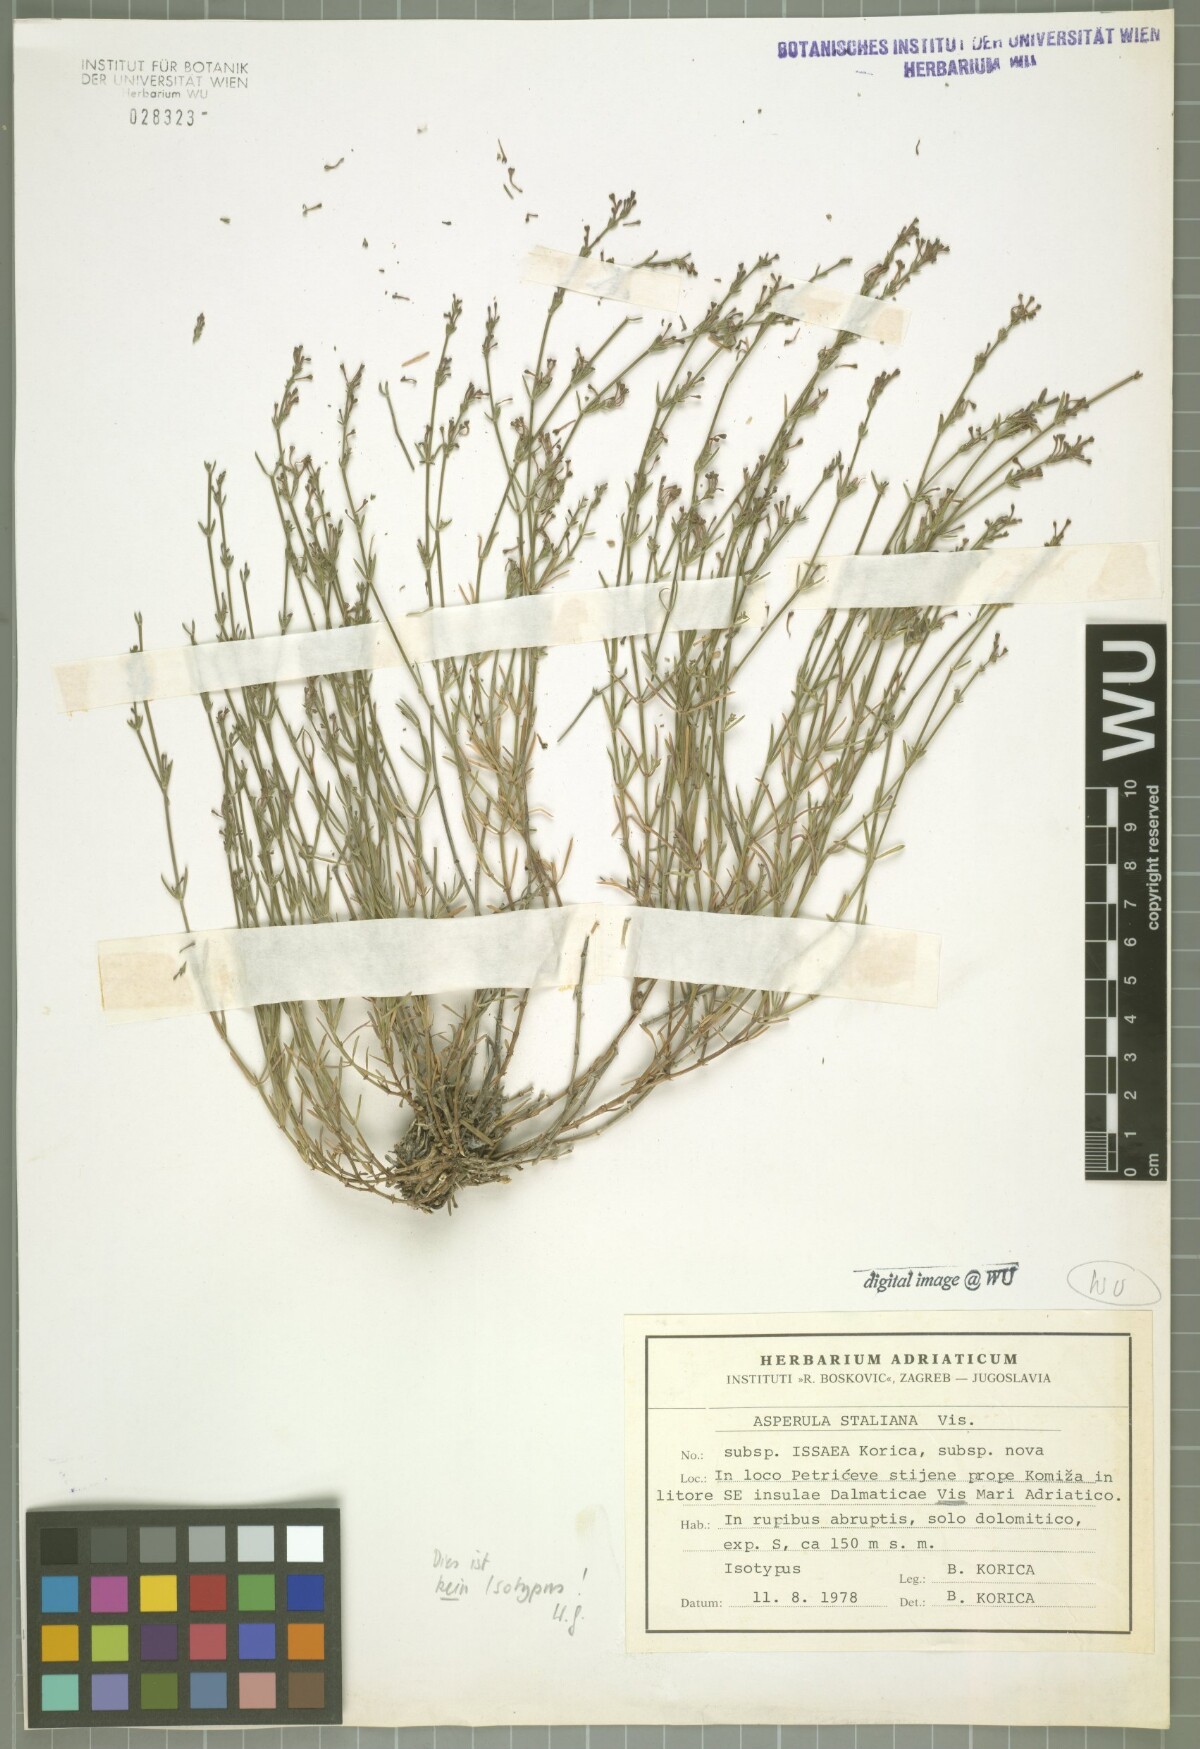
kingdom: Plantae
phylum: Tracheophyta
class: Magnoliopsida
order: Gentianales
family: Rubiaceae
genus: Cynanchica
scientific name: Cynanchica staliana
